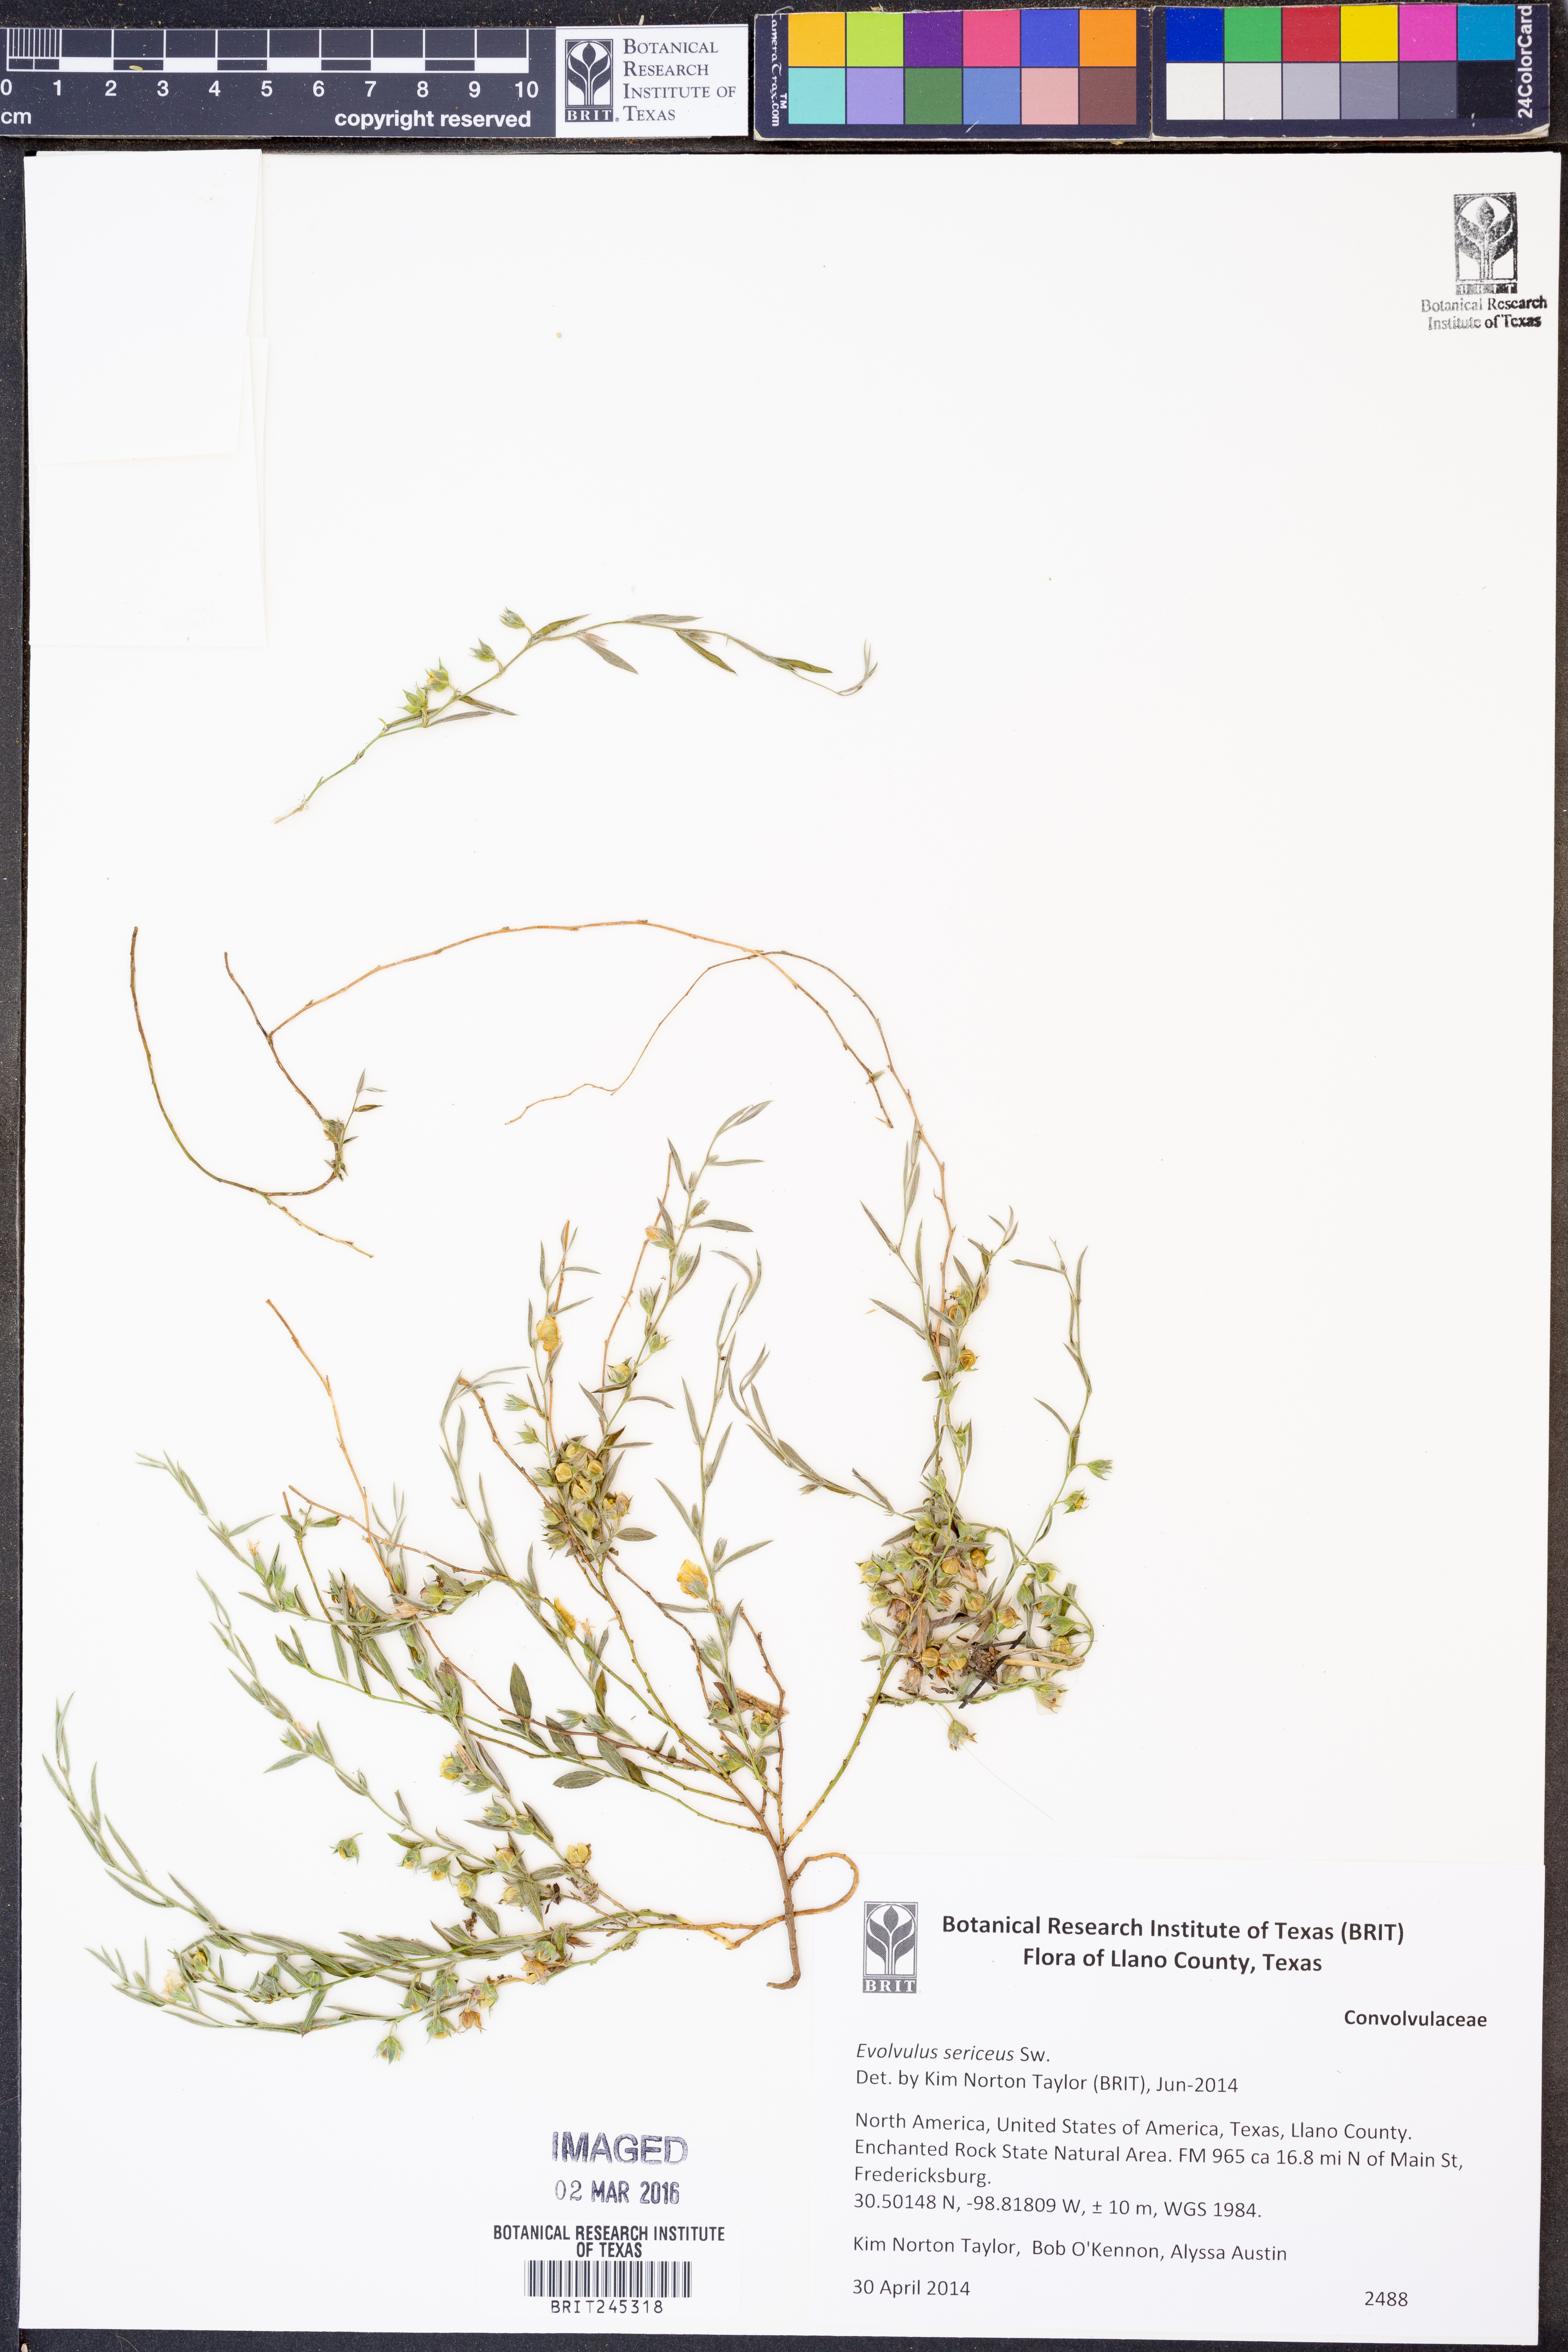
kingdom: Plantae
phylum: Tracheophyta
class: Magnoliopsida
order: Solanales
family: Convolvulaceae
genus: Evolvulus
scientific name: Evolvulus sericeus
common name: Blue dots
